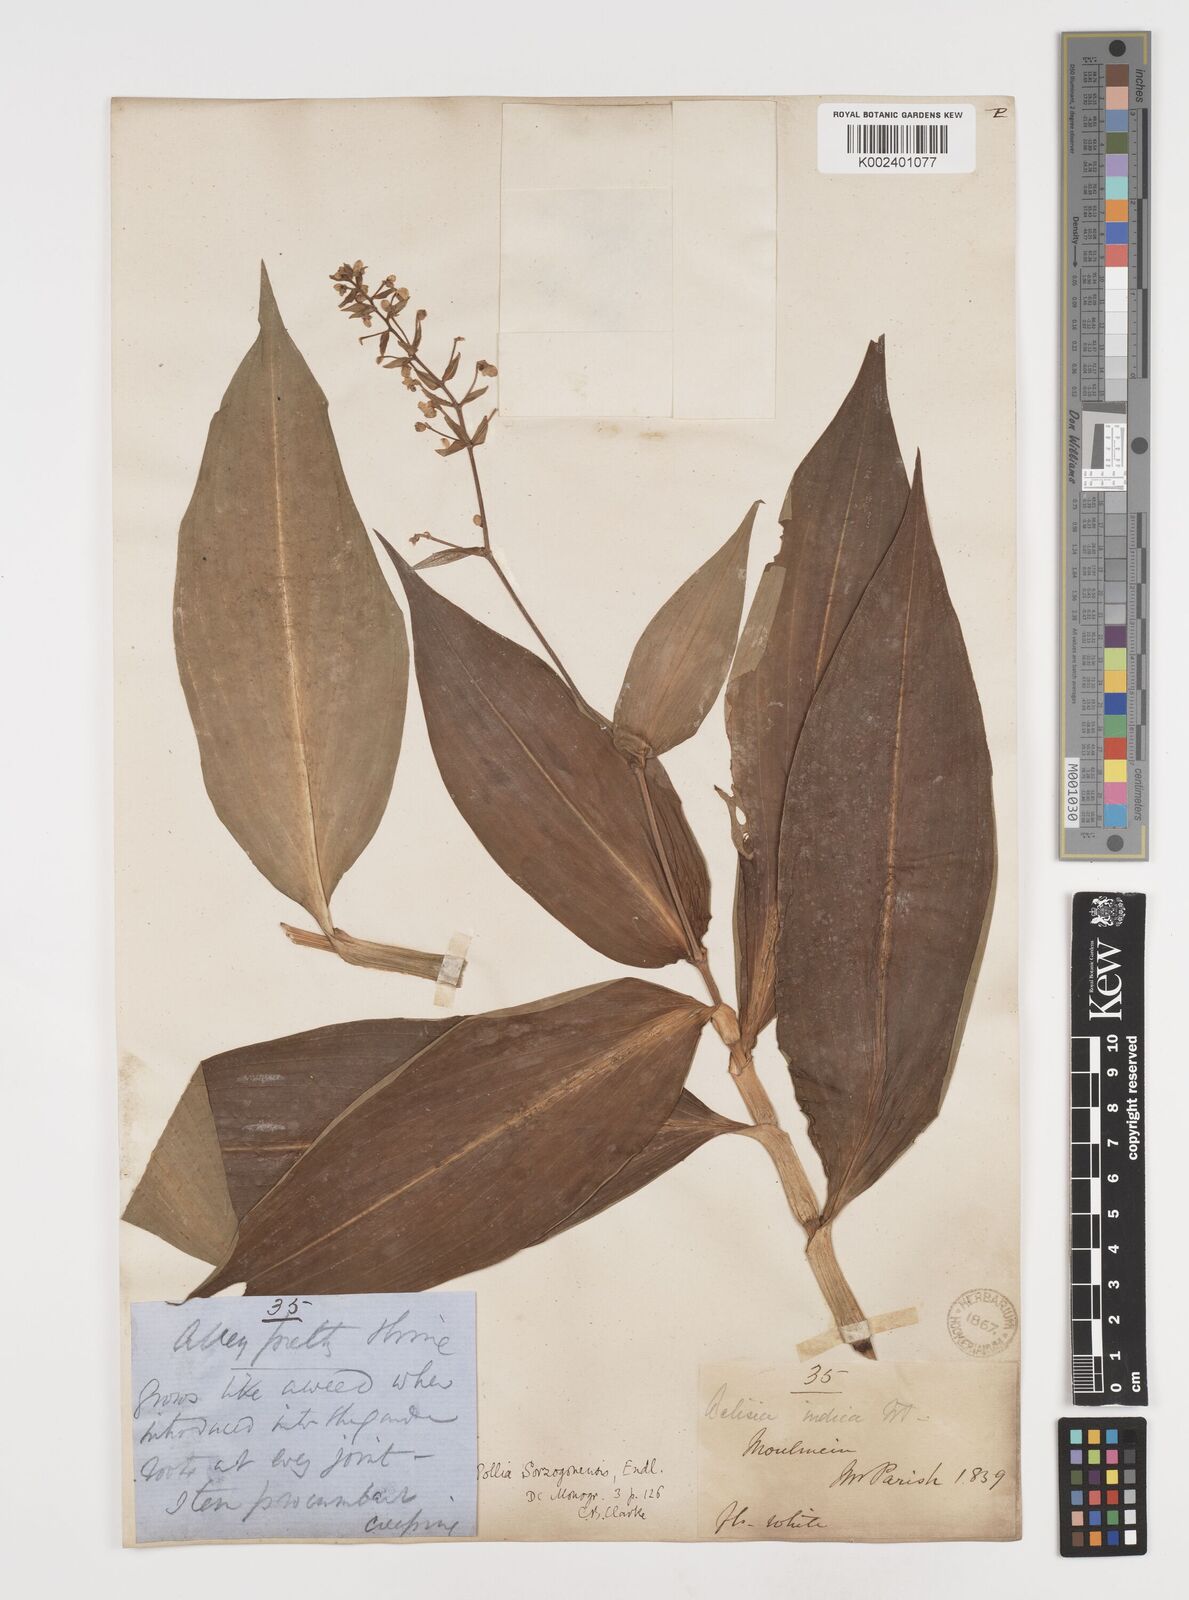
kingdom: Plantae
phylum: Tracheophyta
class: Liliopsida
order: Commelinales
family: Commelinaceae
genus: Pollia
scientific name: Pollia secundiflora
